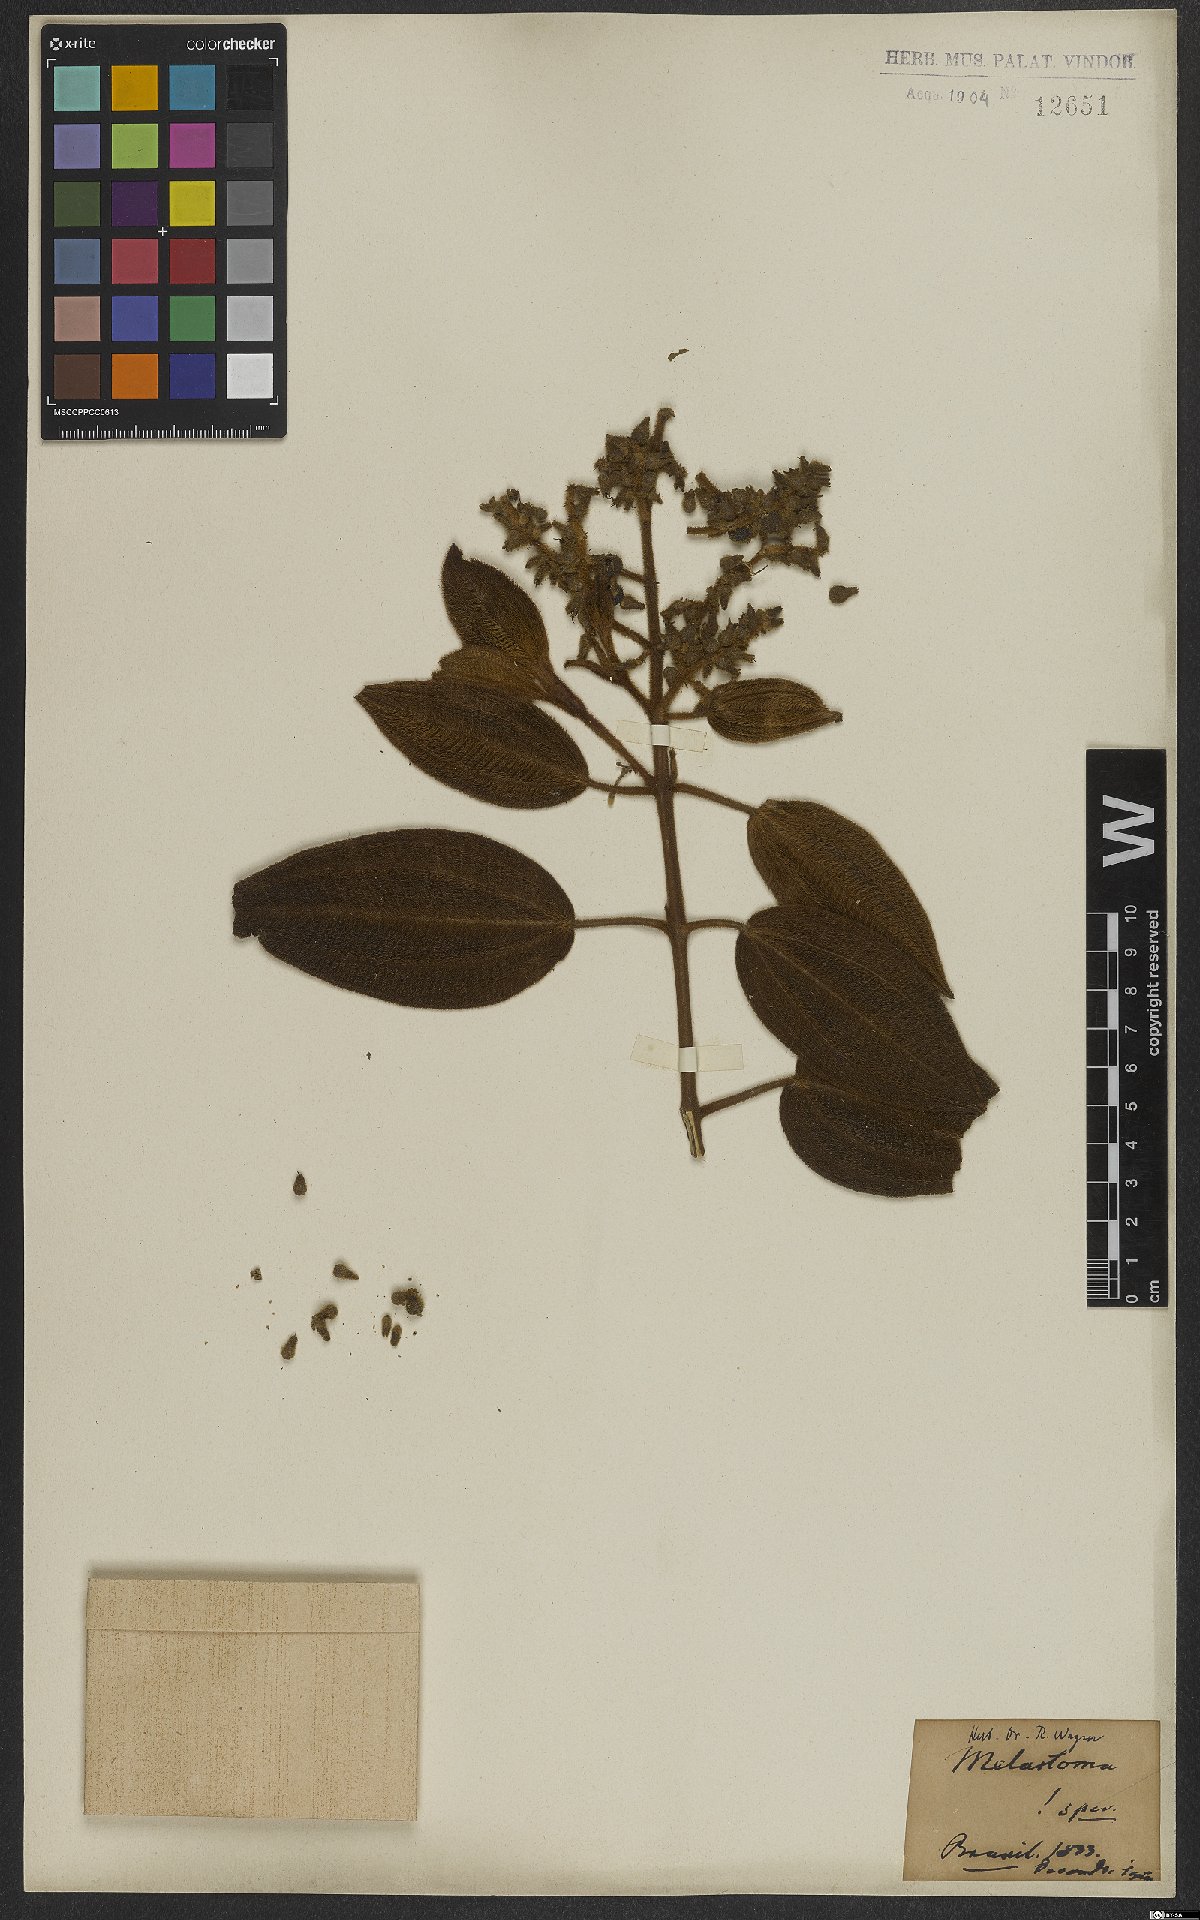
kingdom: Plantae
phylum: Tracheophyta
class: Magnoliopsida
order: Myrtales
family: Melastomataceae
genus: Miconia
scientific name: Miconia
